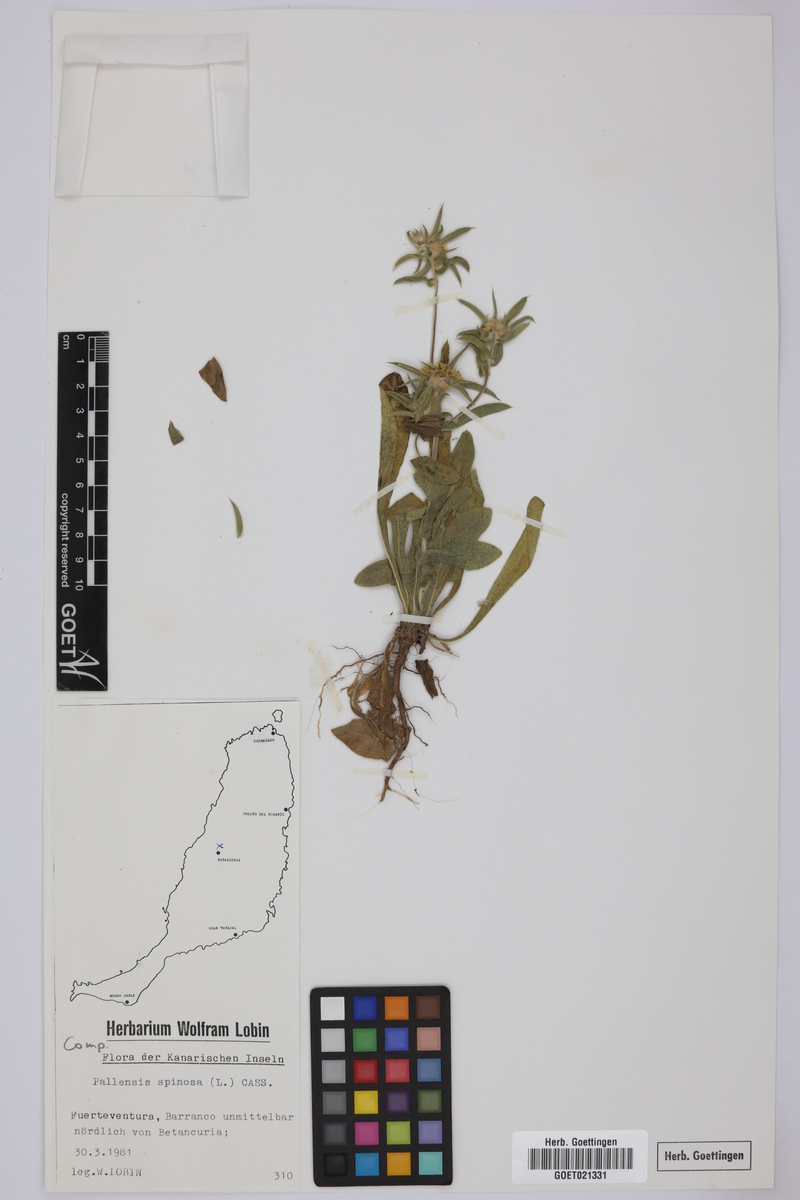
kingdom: Plantae
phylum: Tracheophyta
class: Magnoliopsida
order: Asterales
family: Asteraceae
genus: Pallenis
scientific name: Pallenis spinosa
